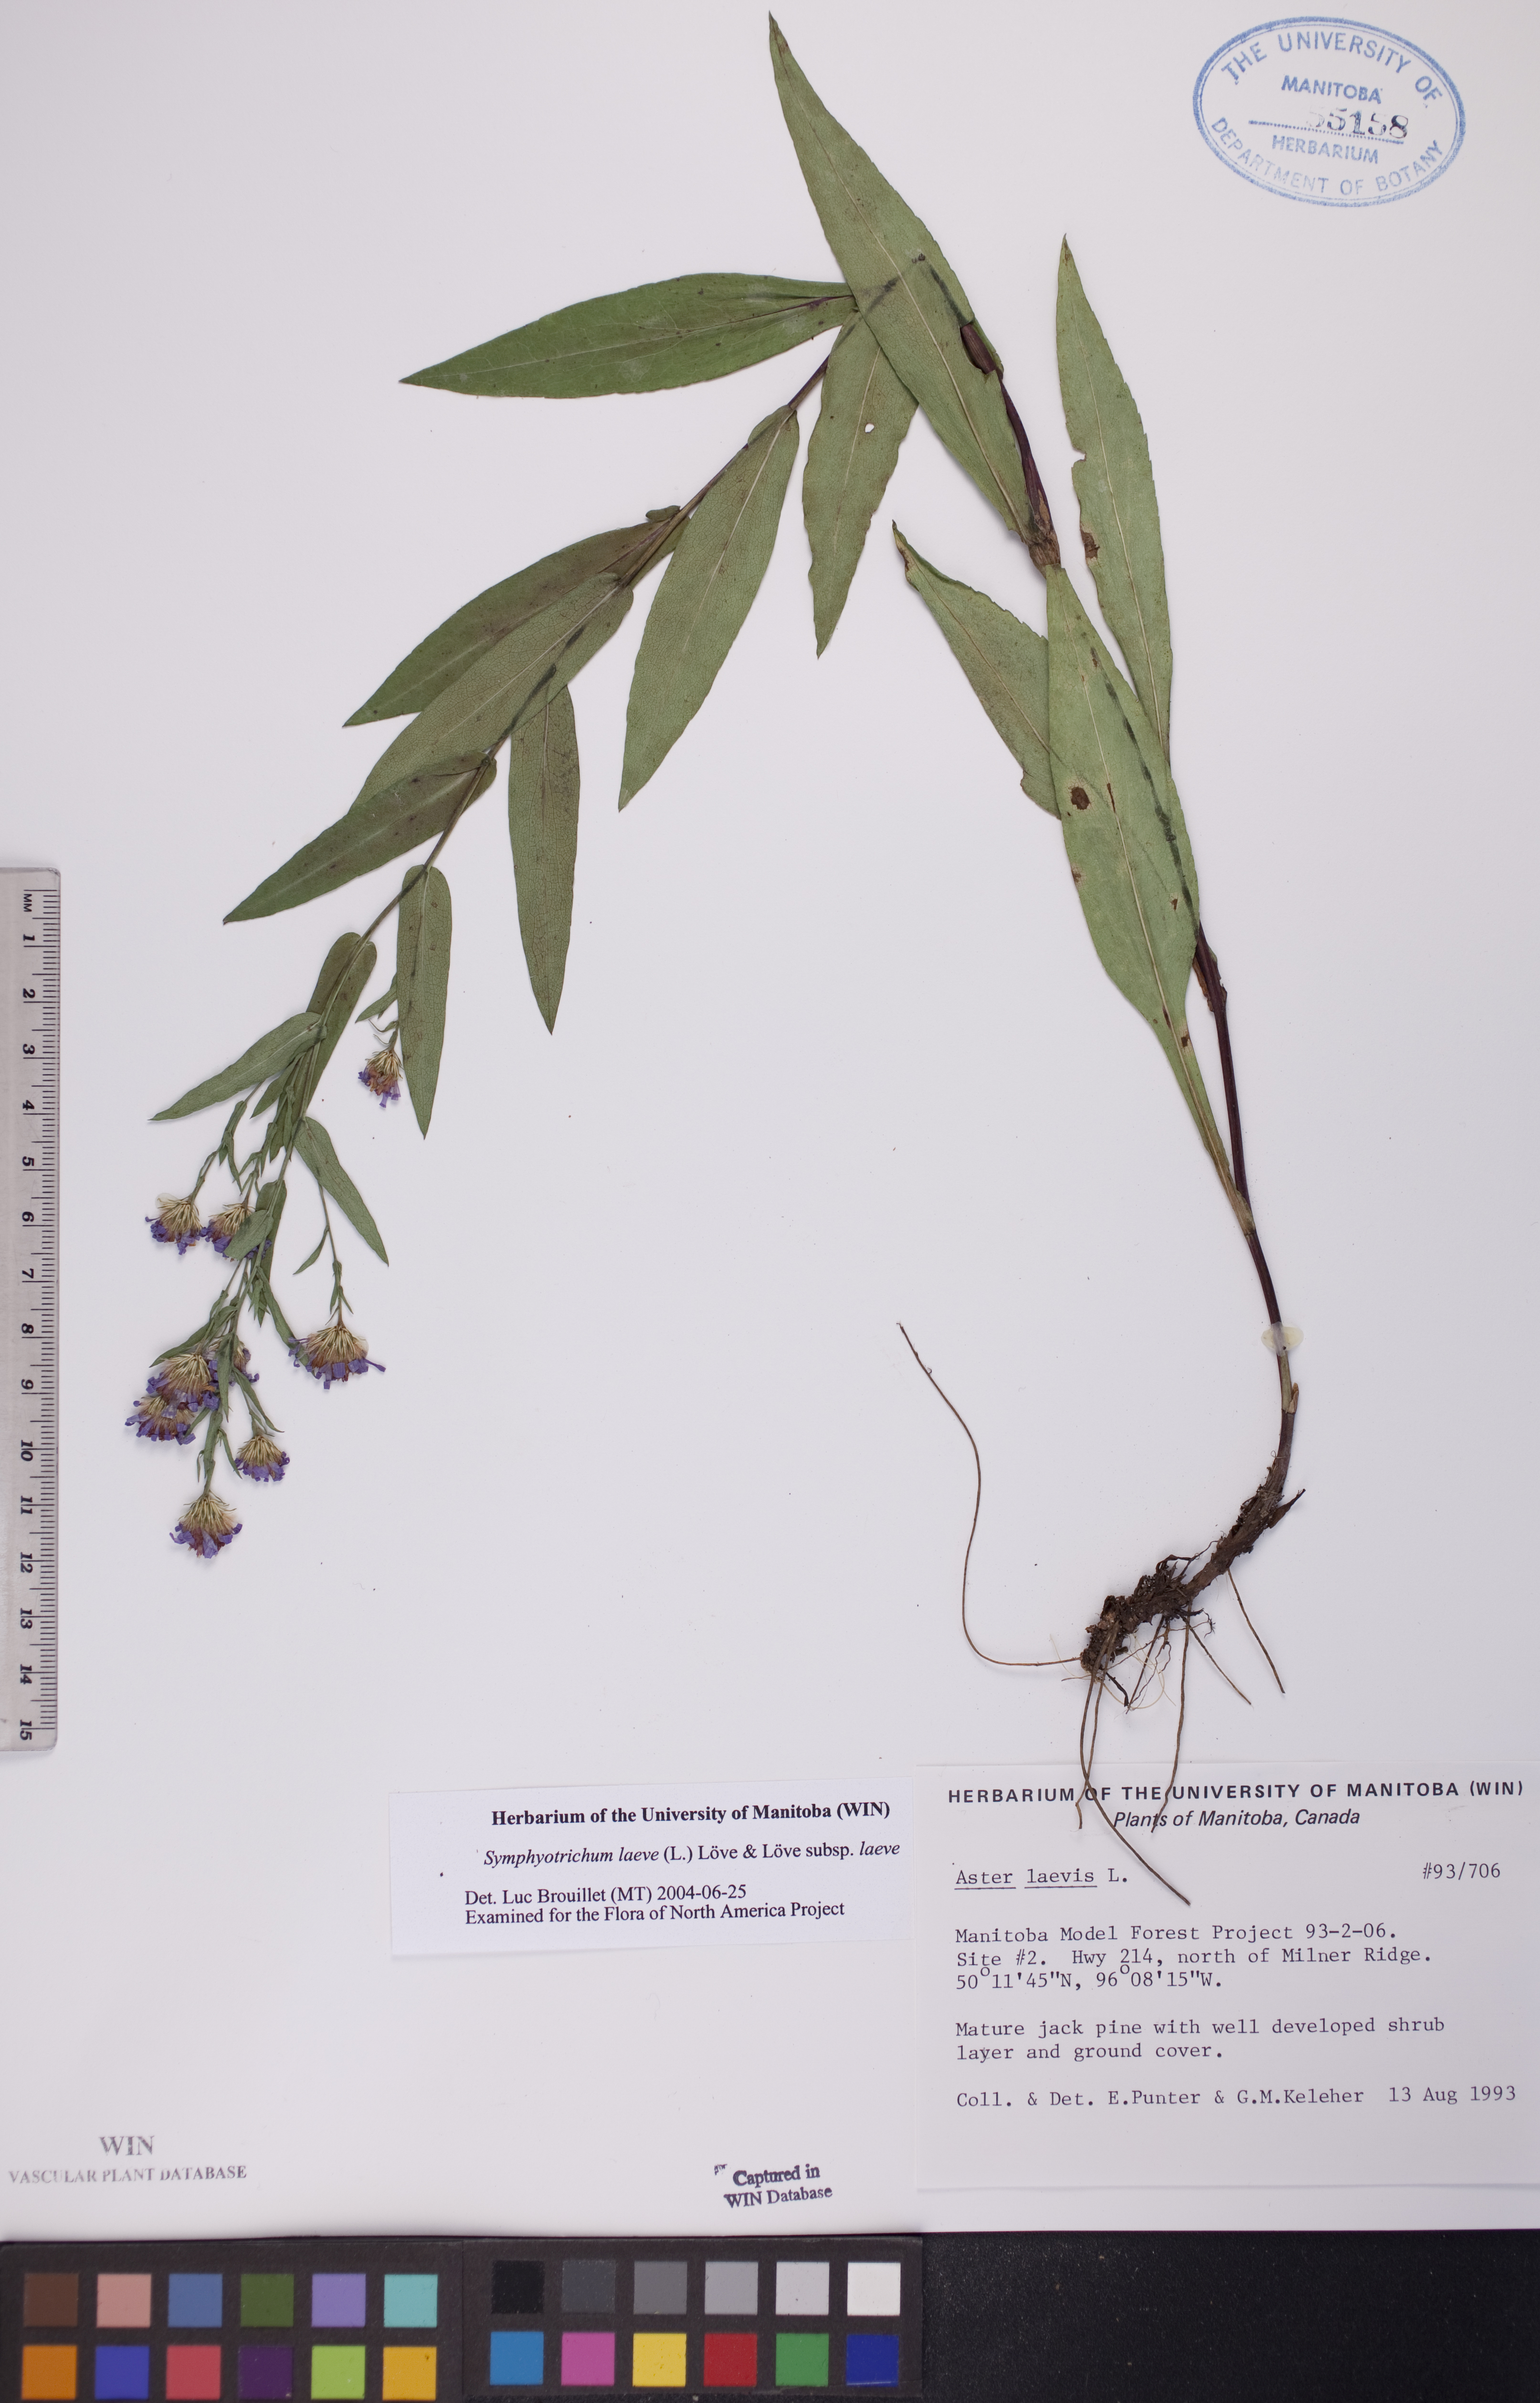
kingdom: Plantae
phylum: Tracheophyta
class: Magnoliopsida
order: Asterales
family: Asteraceae
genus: Symphyotrichum
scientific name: Symphyotrichum laeve
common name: Glaucous aster
